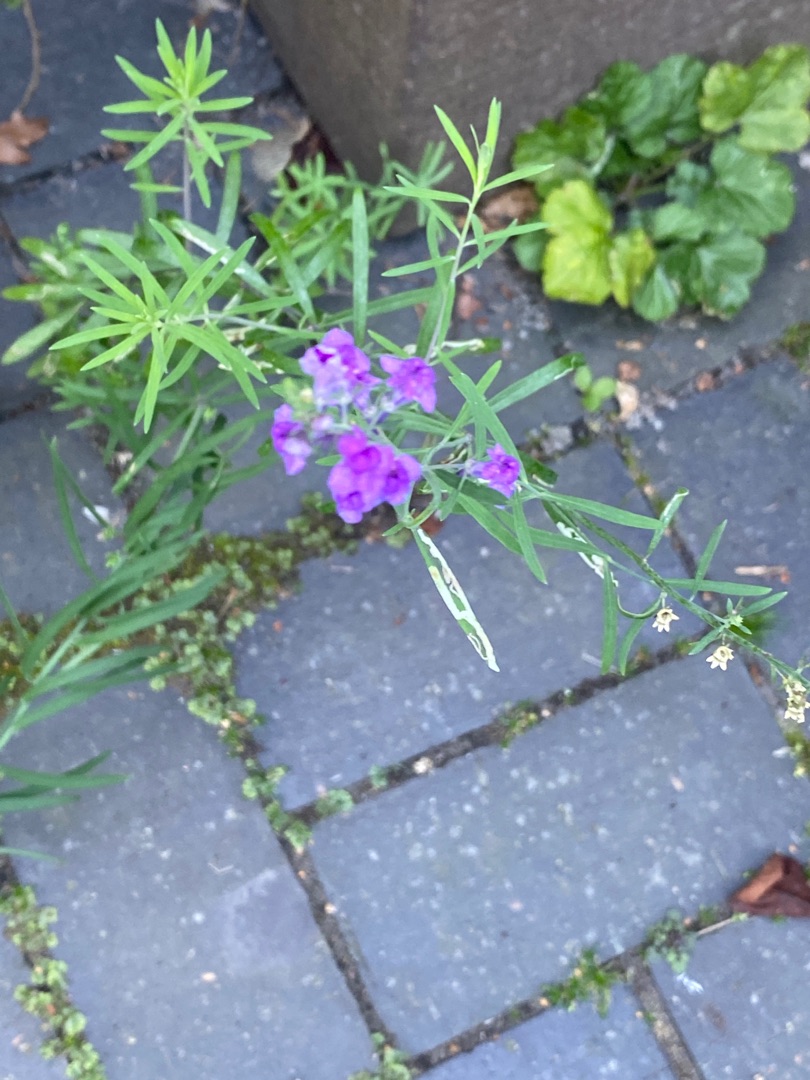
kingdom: Plantae
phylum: Tracheophyta
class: Magnoliopsida
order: Lamiales
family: Plantaginaceae
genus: Linaria
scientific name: Linaria purpurea
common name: Purpur-torskemund
